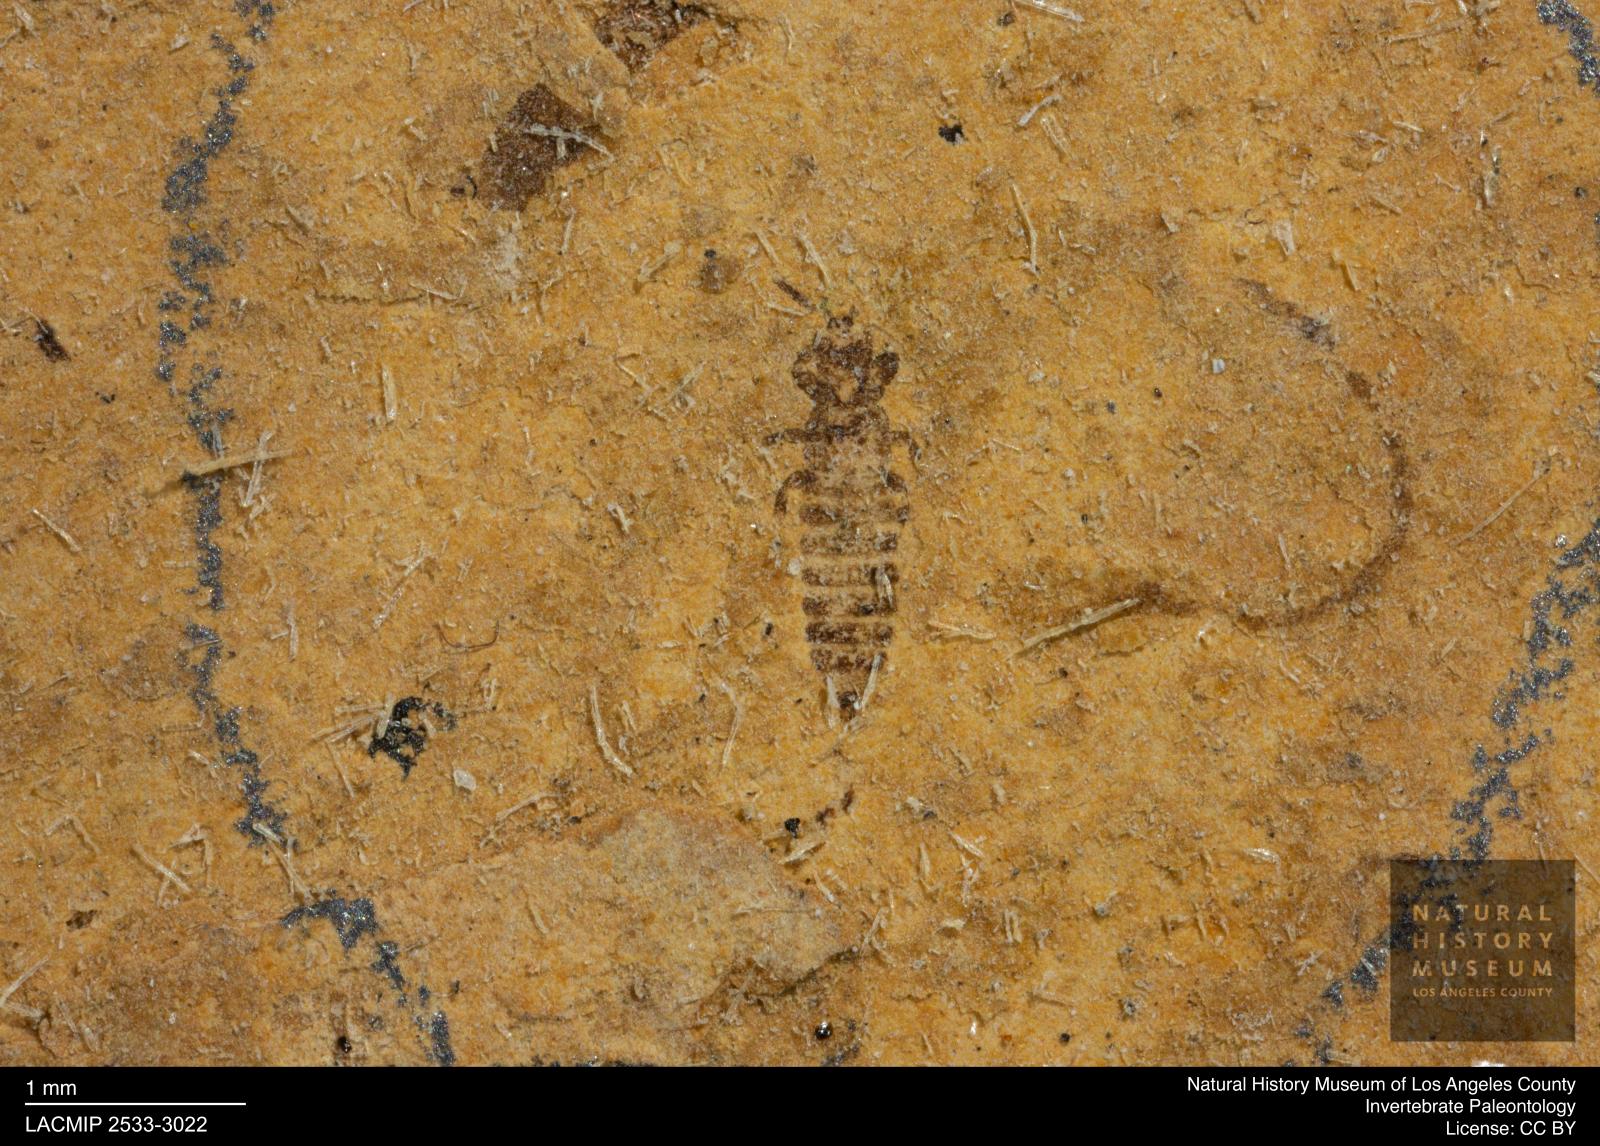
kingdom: Animalia
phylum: Arthropoda
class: Insecta
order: Thysanoptera
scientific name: Thysanoptera
